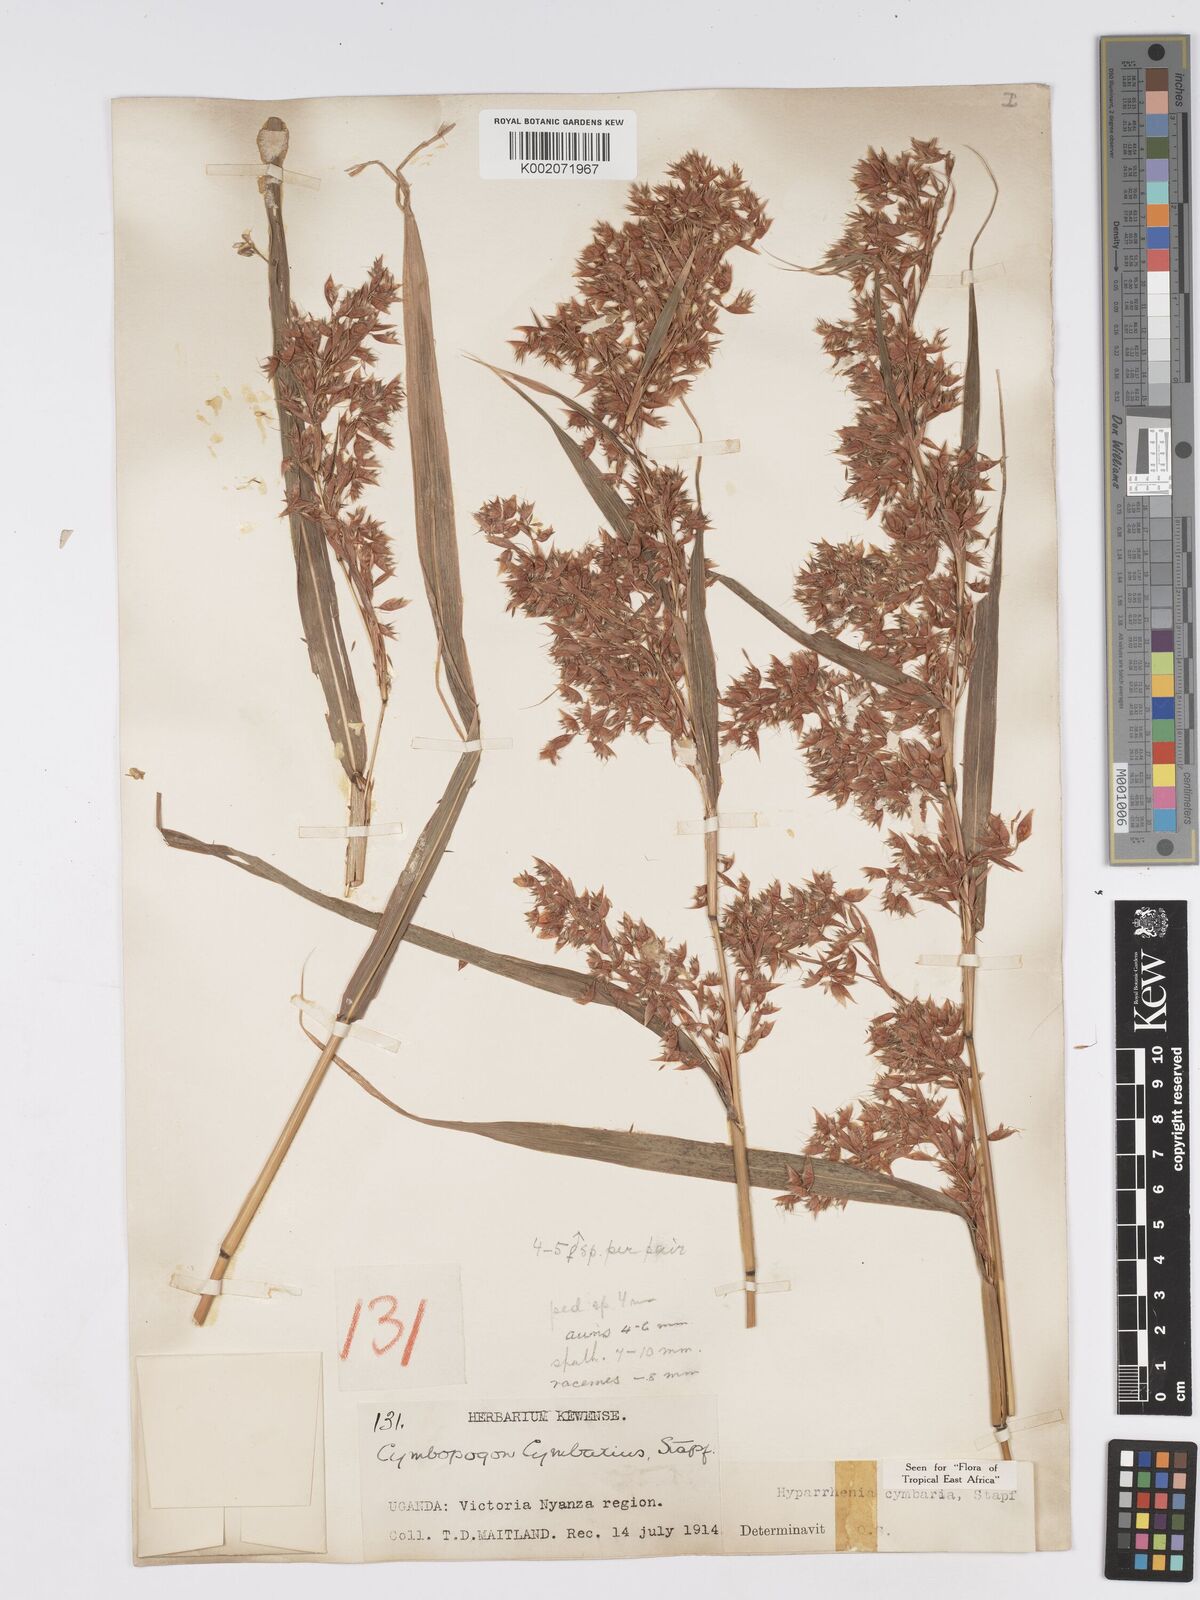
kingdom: Plantae
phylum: Tracheophyta
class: Liliopsida
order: Poales
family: Poaceae
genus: Hyparrhenia
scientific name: Hyparrhenia cymbaria
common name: Boat thatching grass
